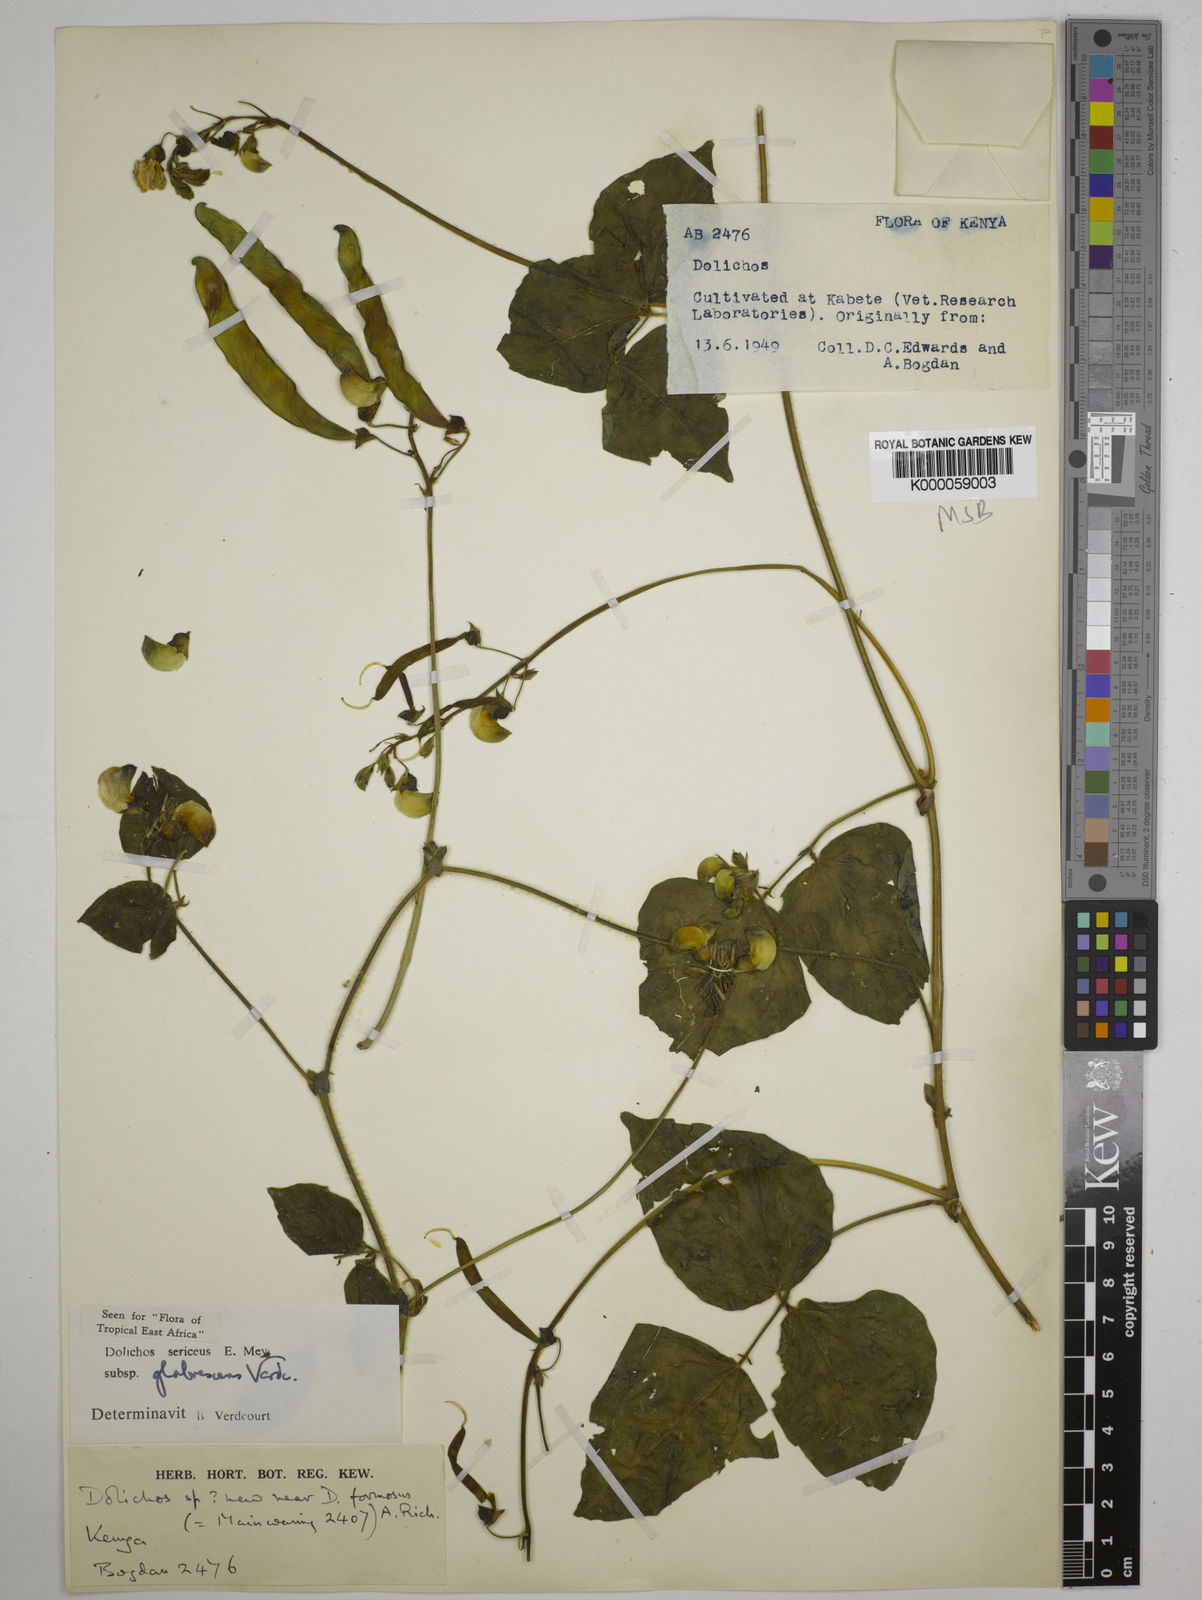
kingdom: Plantae
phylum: Tracheophyta
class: Magnoliopsida
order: Fabales
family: Fabaceae
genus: Dolichos
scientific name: Dolichos sericeus
